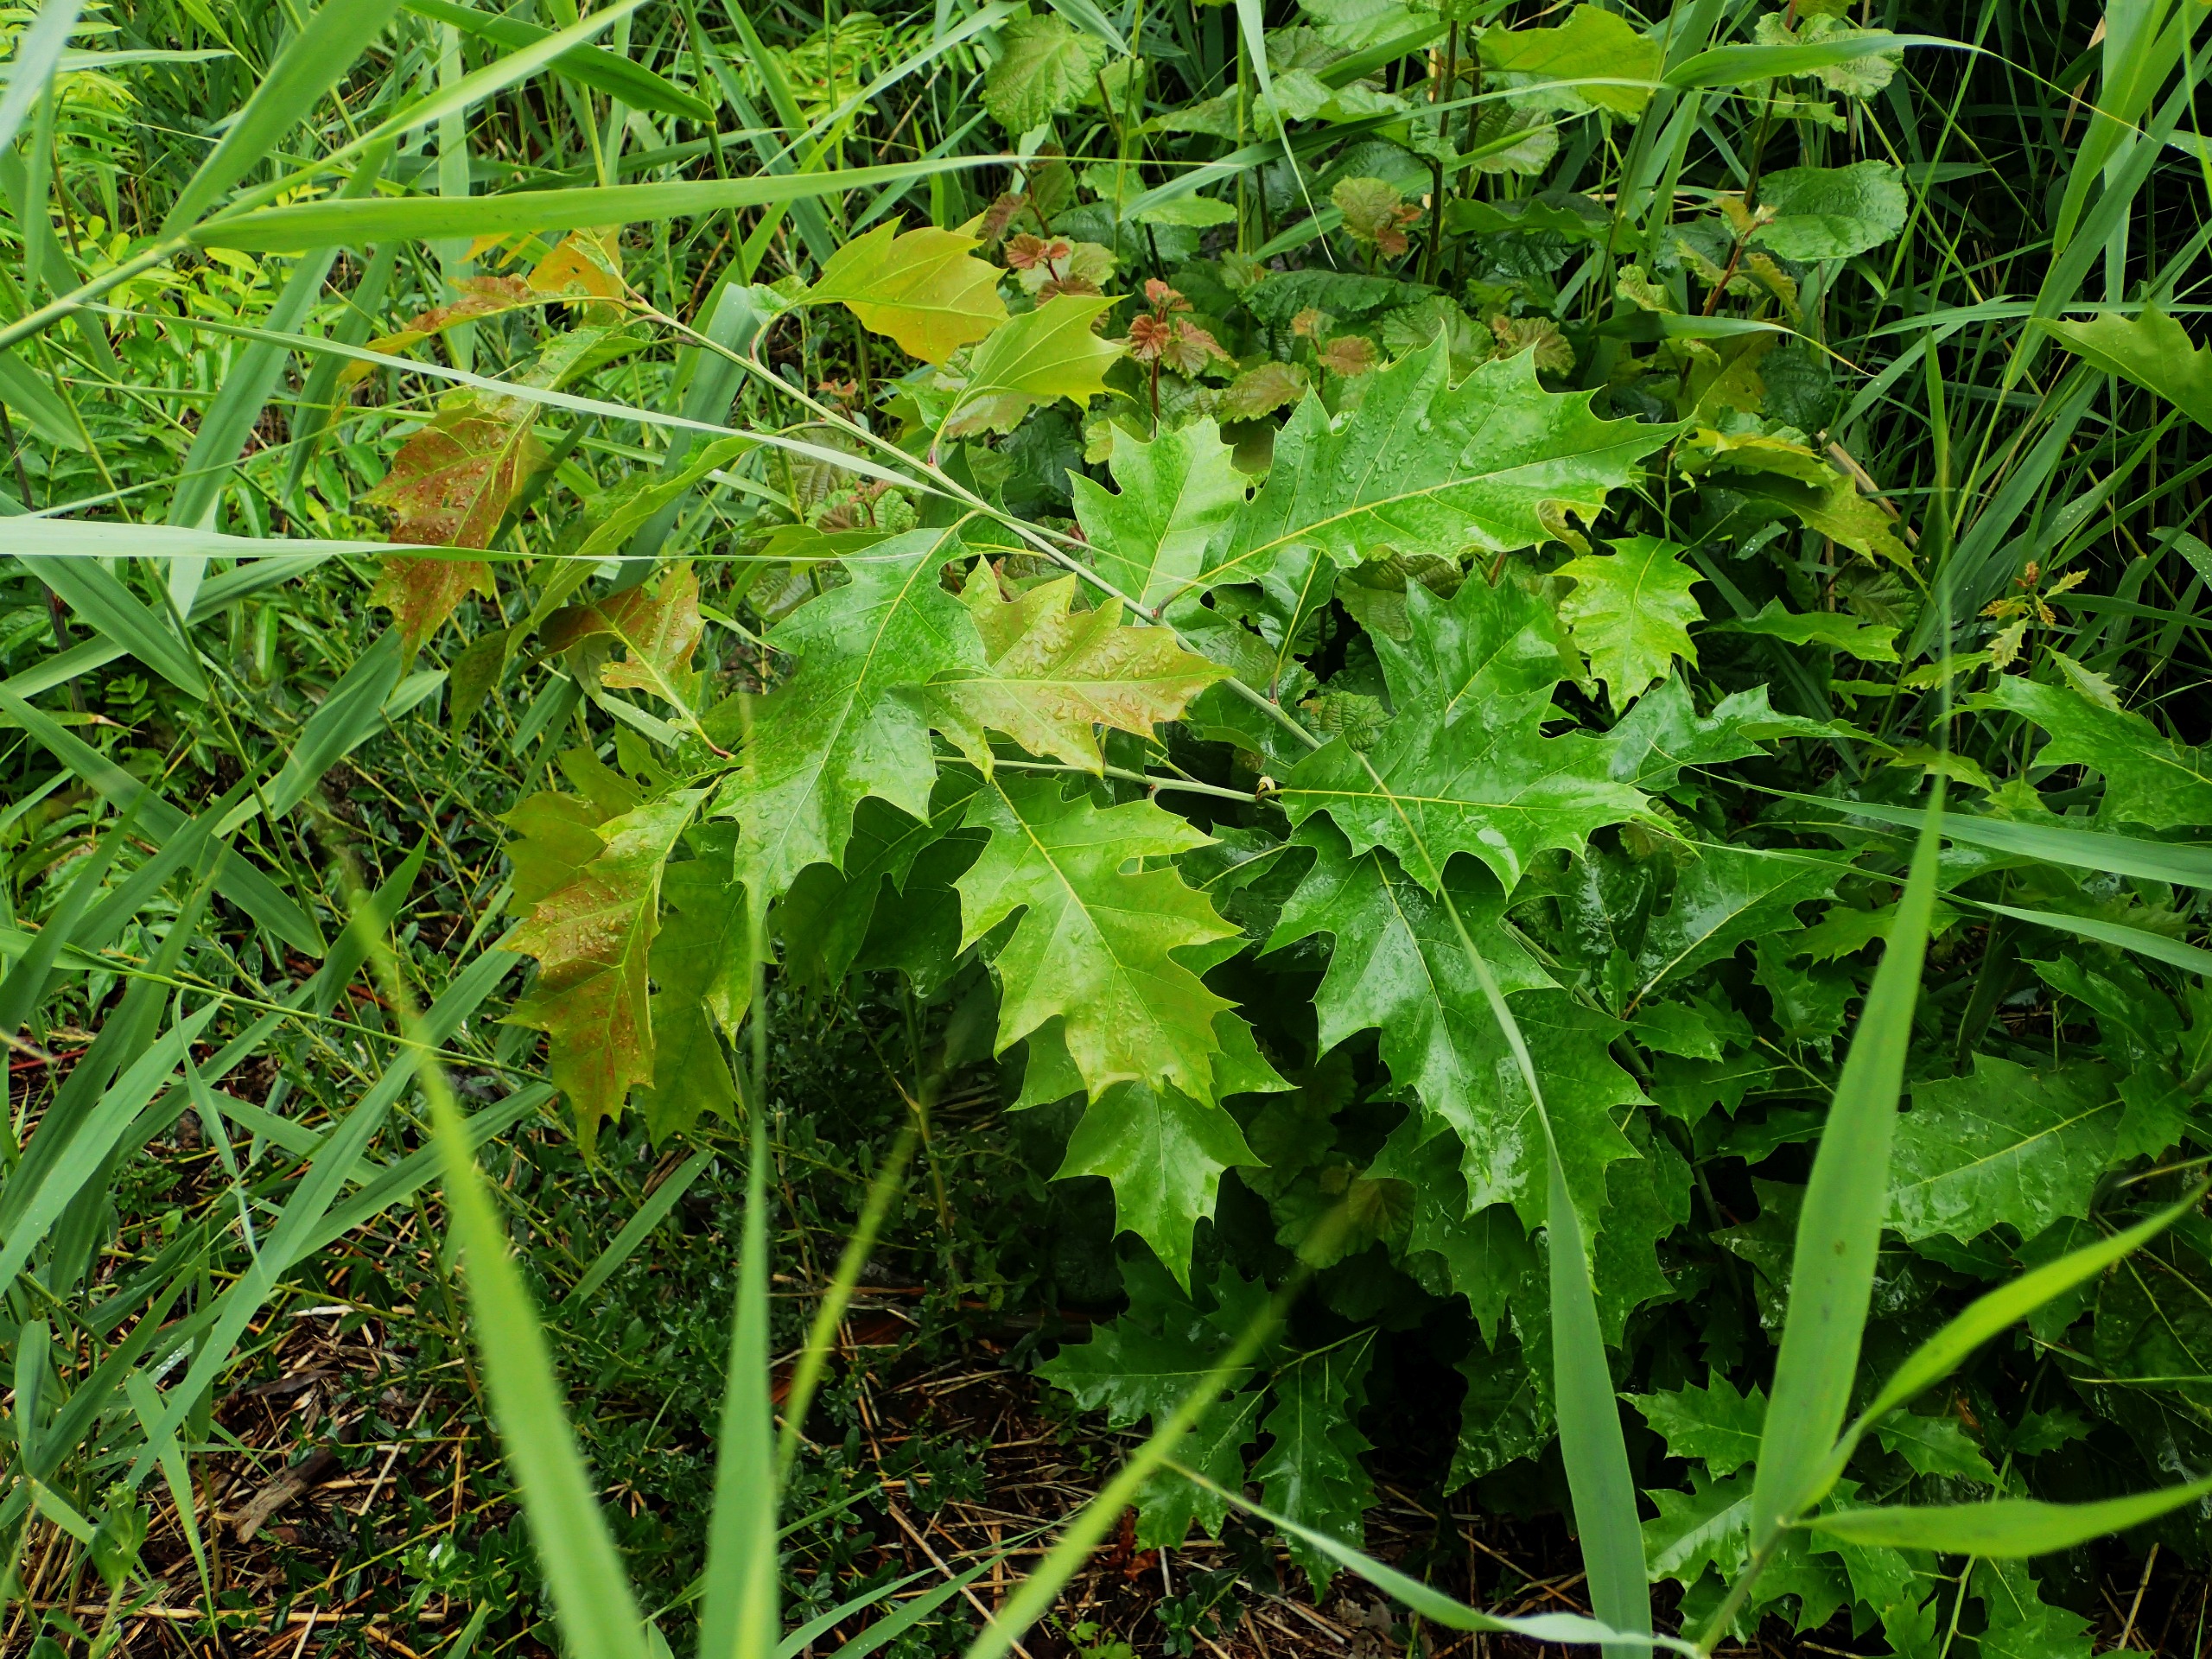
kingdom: Plantae
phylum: Tracheophyta
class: Magnoliopsida
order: Fagales
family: Fagaceae
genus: Quercus
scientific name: Quercus rubra
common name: Rød-eg
